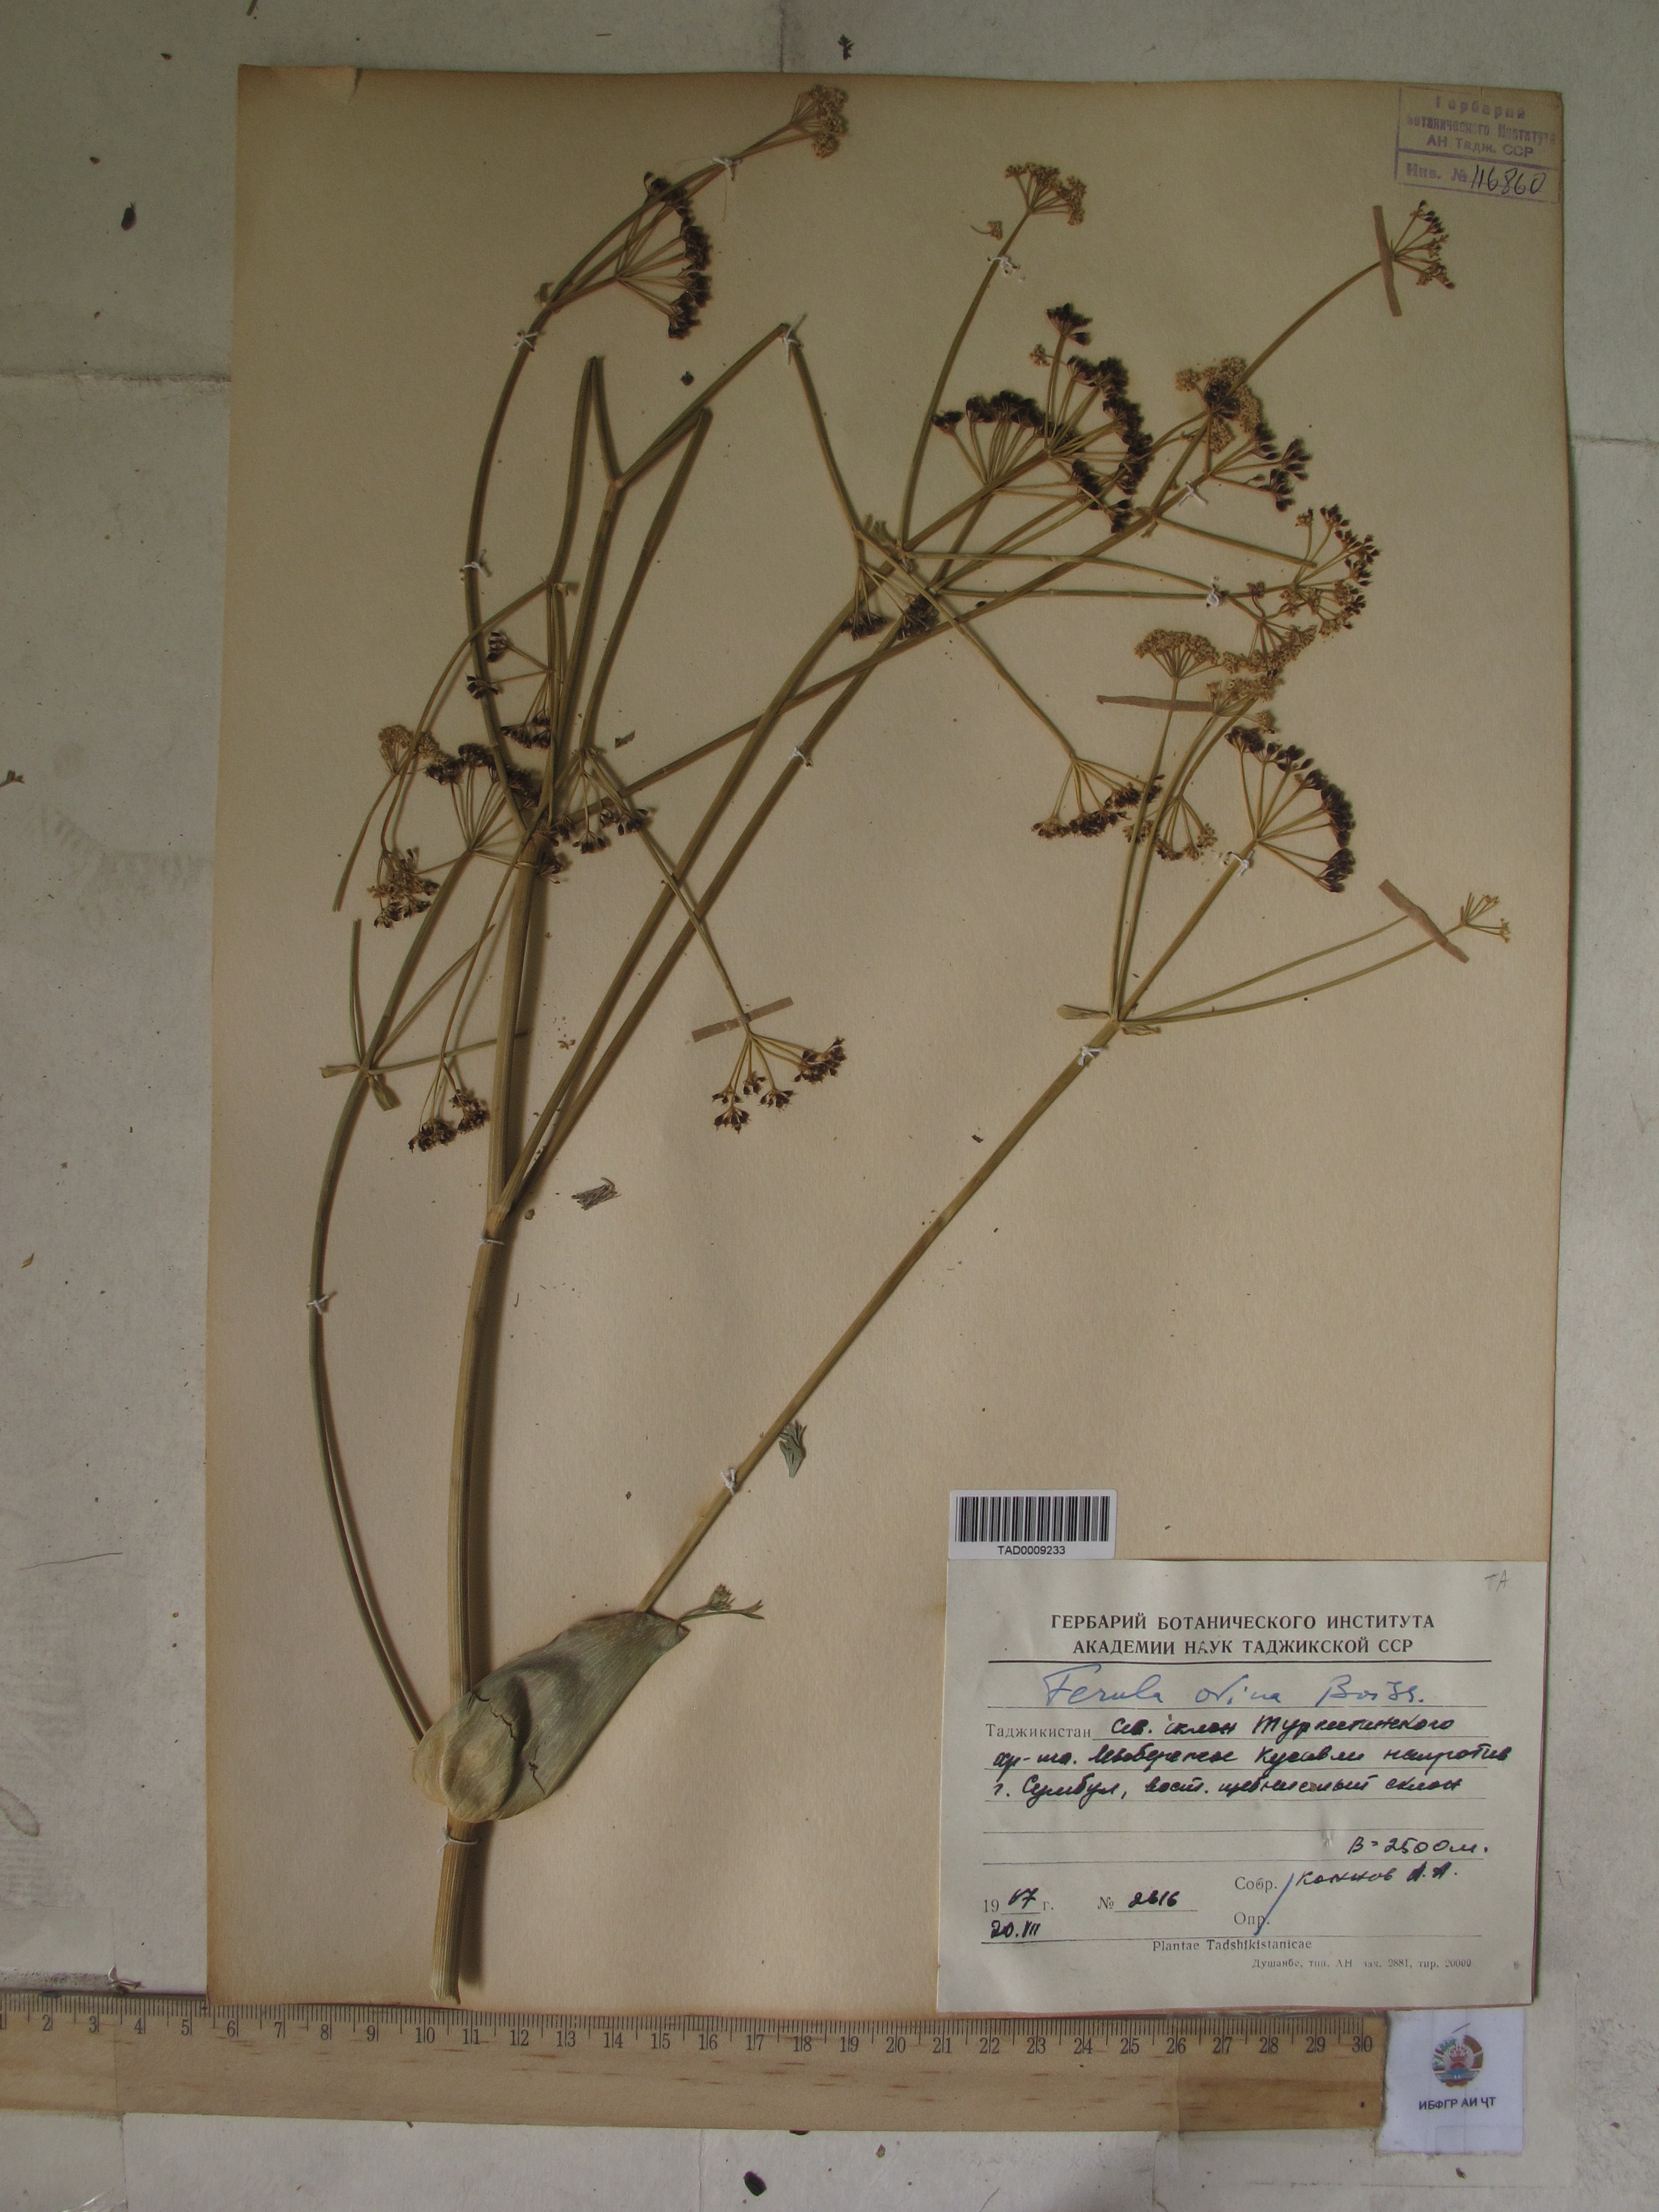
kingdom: Plantae
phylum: Tracheophyta
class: Magnoliopsida
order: Apiales
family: Apiaceae
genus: Ferula
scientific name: Ferula ovina
